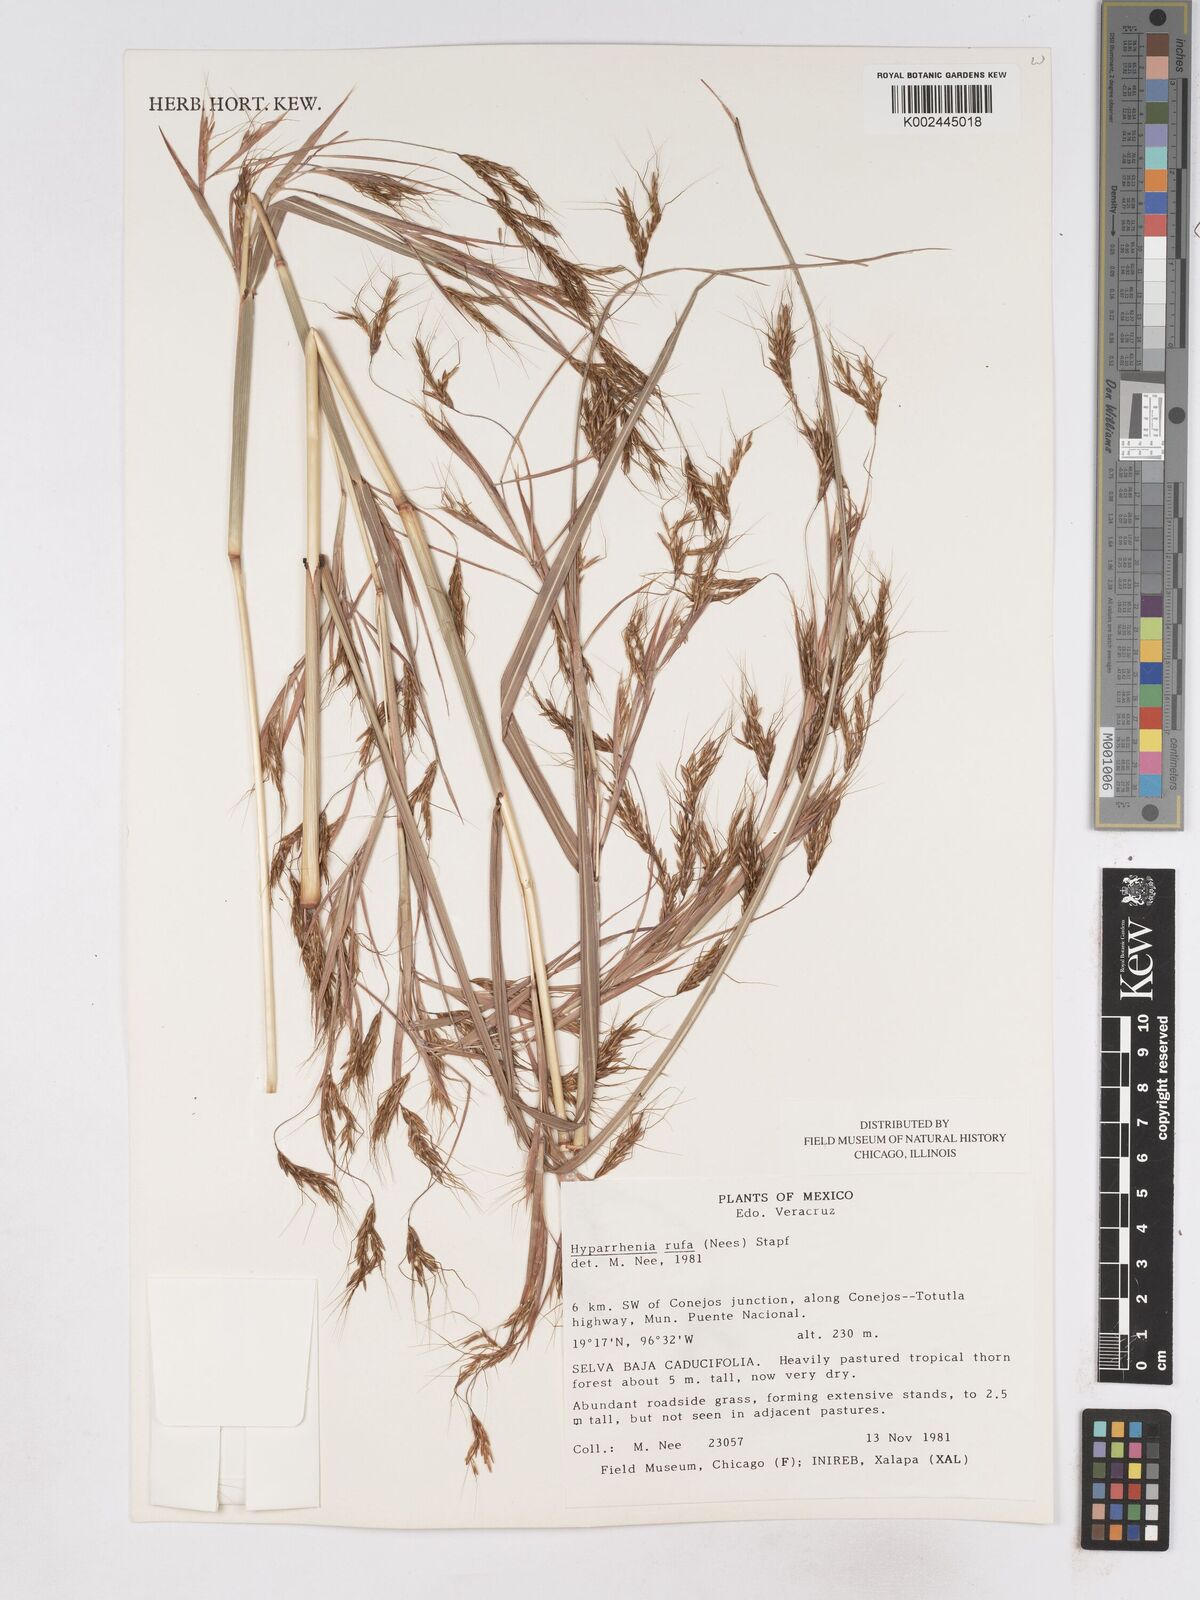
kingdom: Plantae
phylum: Tracheophyta
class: Liliopsida
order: Poales
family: Poaceae
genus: Hyparrhenia
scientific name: Hyparrhenia rufa
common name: Jaraguagrass
